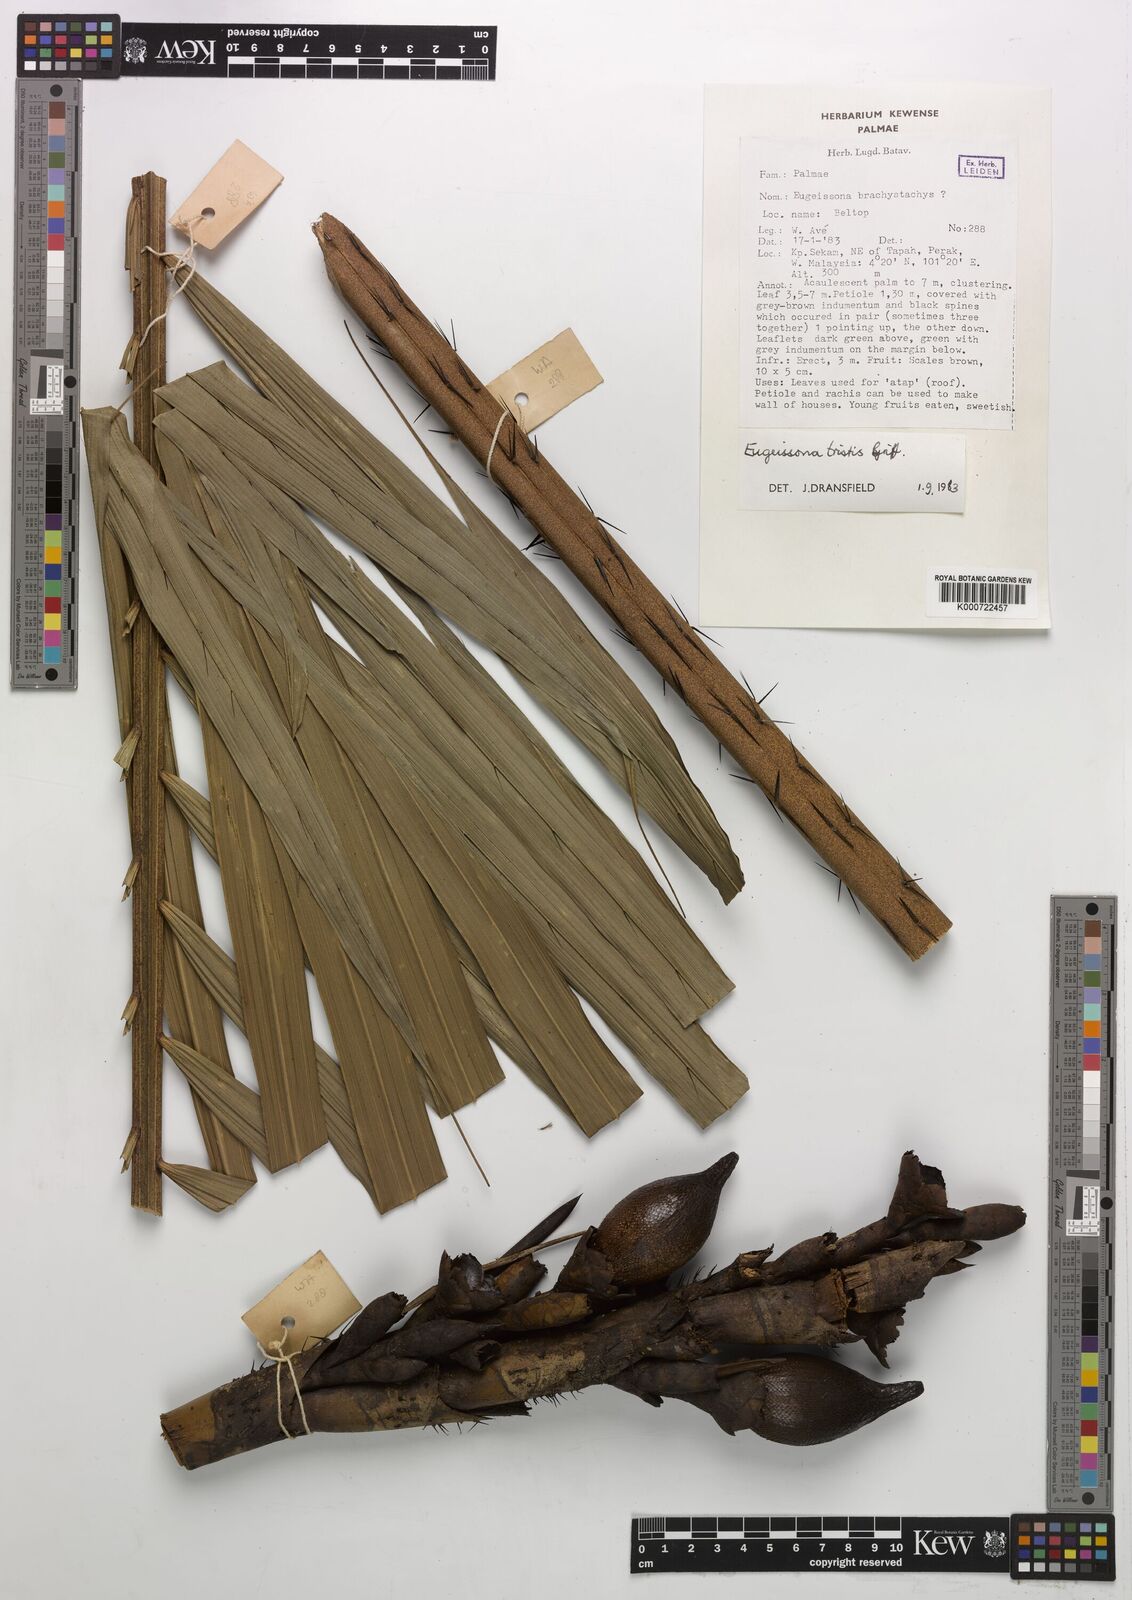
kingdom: Plantae
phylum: Tracheophyta
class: Liliopsida
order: Arecales
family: Arecaceae
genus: Eugeissona
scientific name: Eugeissona tristis
